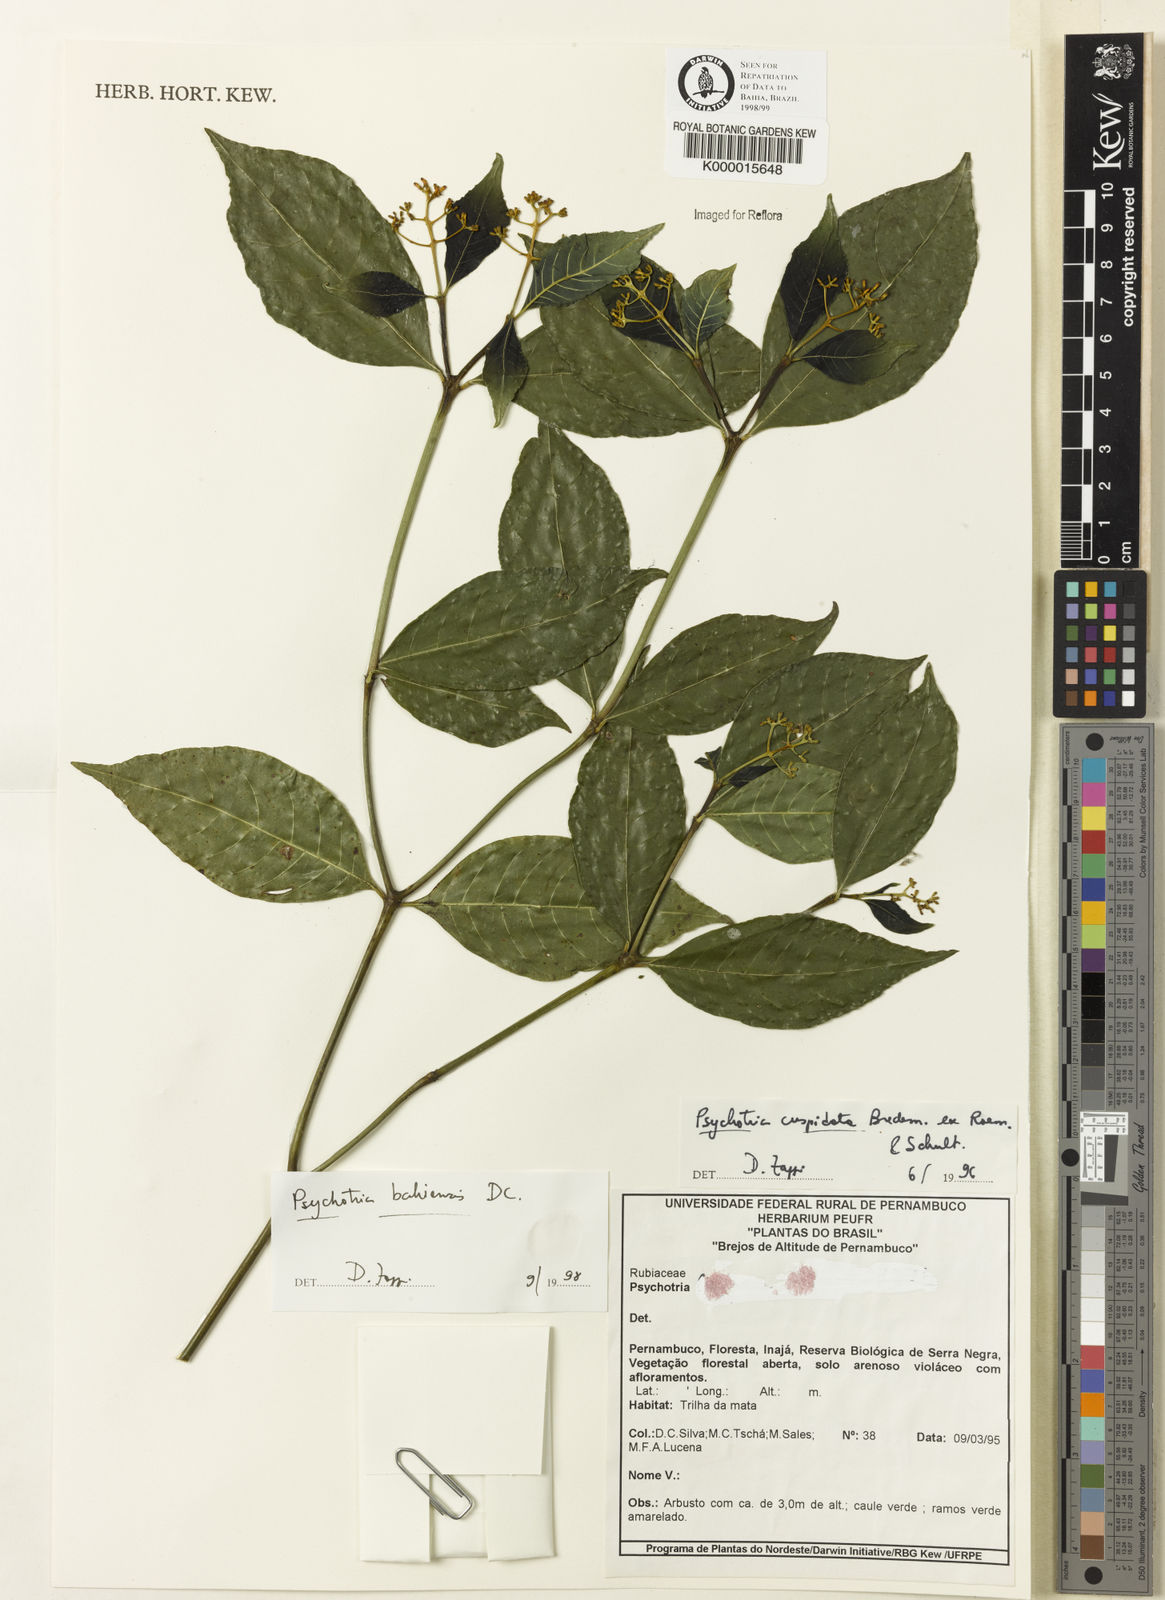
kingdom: Plantae
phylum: Tracheophyta
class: Magnoliopsida
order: Gentianales
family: Rubiaceae
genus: Psychotria
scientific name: Psychotria bahiensis
